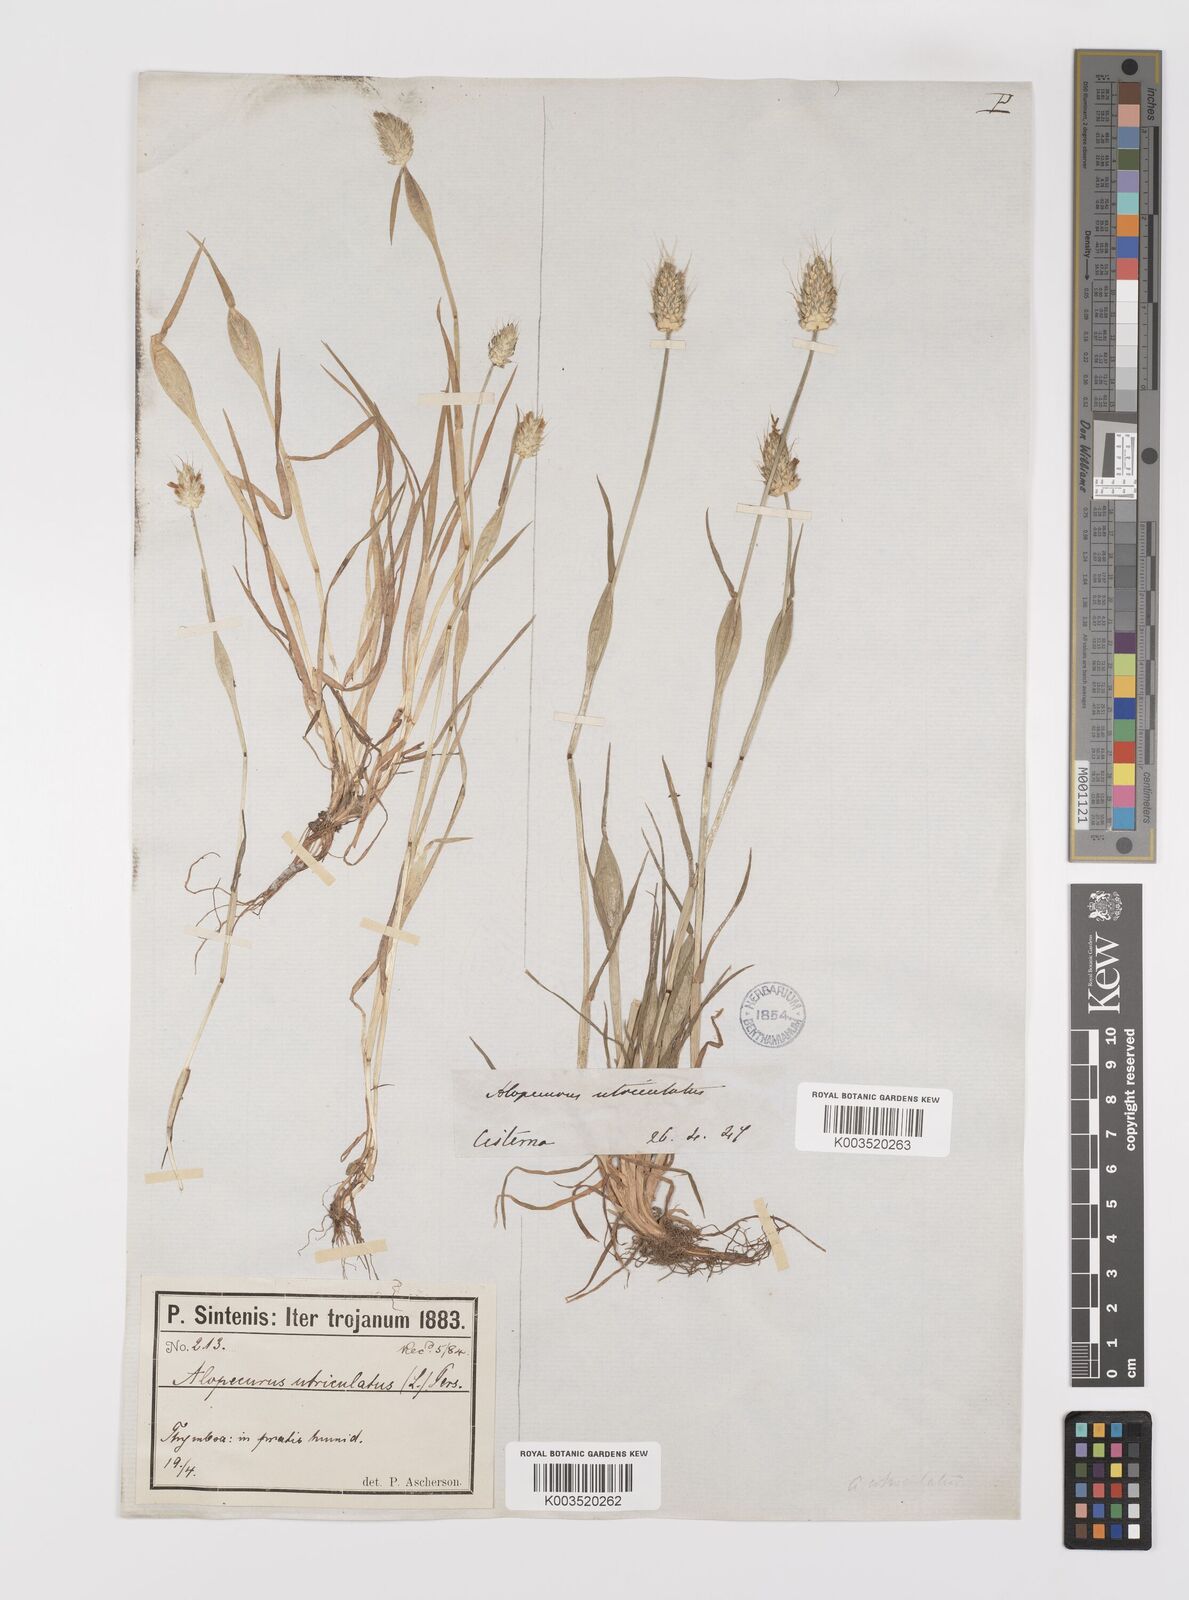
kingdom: Plantae
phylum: Tracheophyta
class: Liliopsida
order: Poales
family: Poaceae
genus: Alopecurus
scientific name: Alopecurus rendlei
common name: Rendle's meadow foxtail
